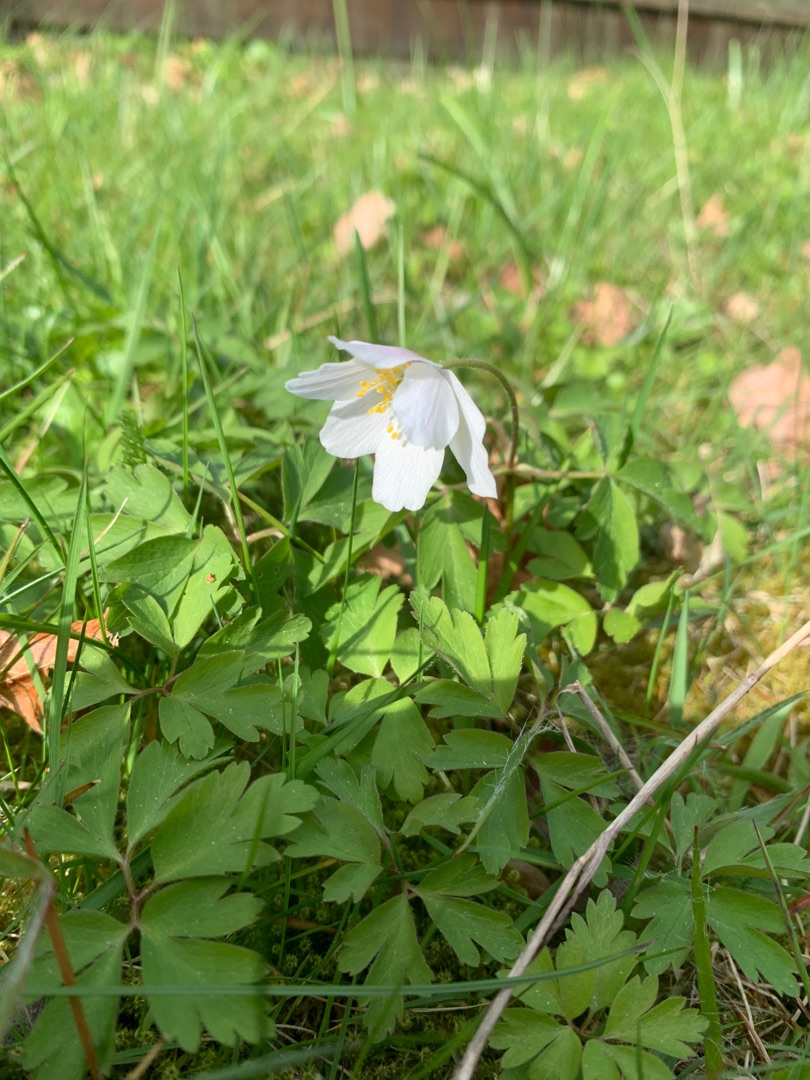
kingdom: Plantae
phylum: Tracheophyta
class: Magnoliopsida
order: Ranunculales
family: Ranunculaceae
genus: Anemone
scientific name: Anemone nemorosa
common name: Hvid anemone
